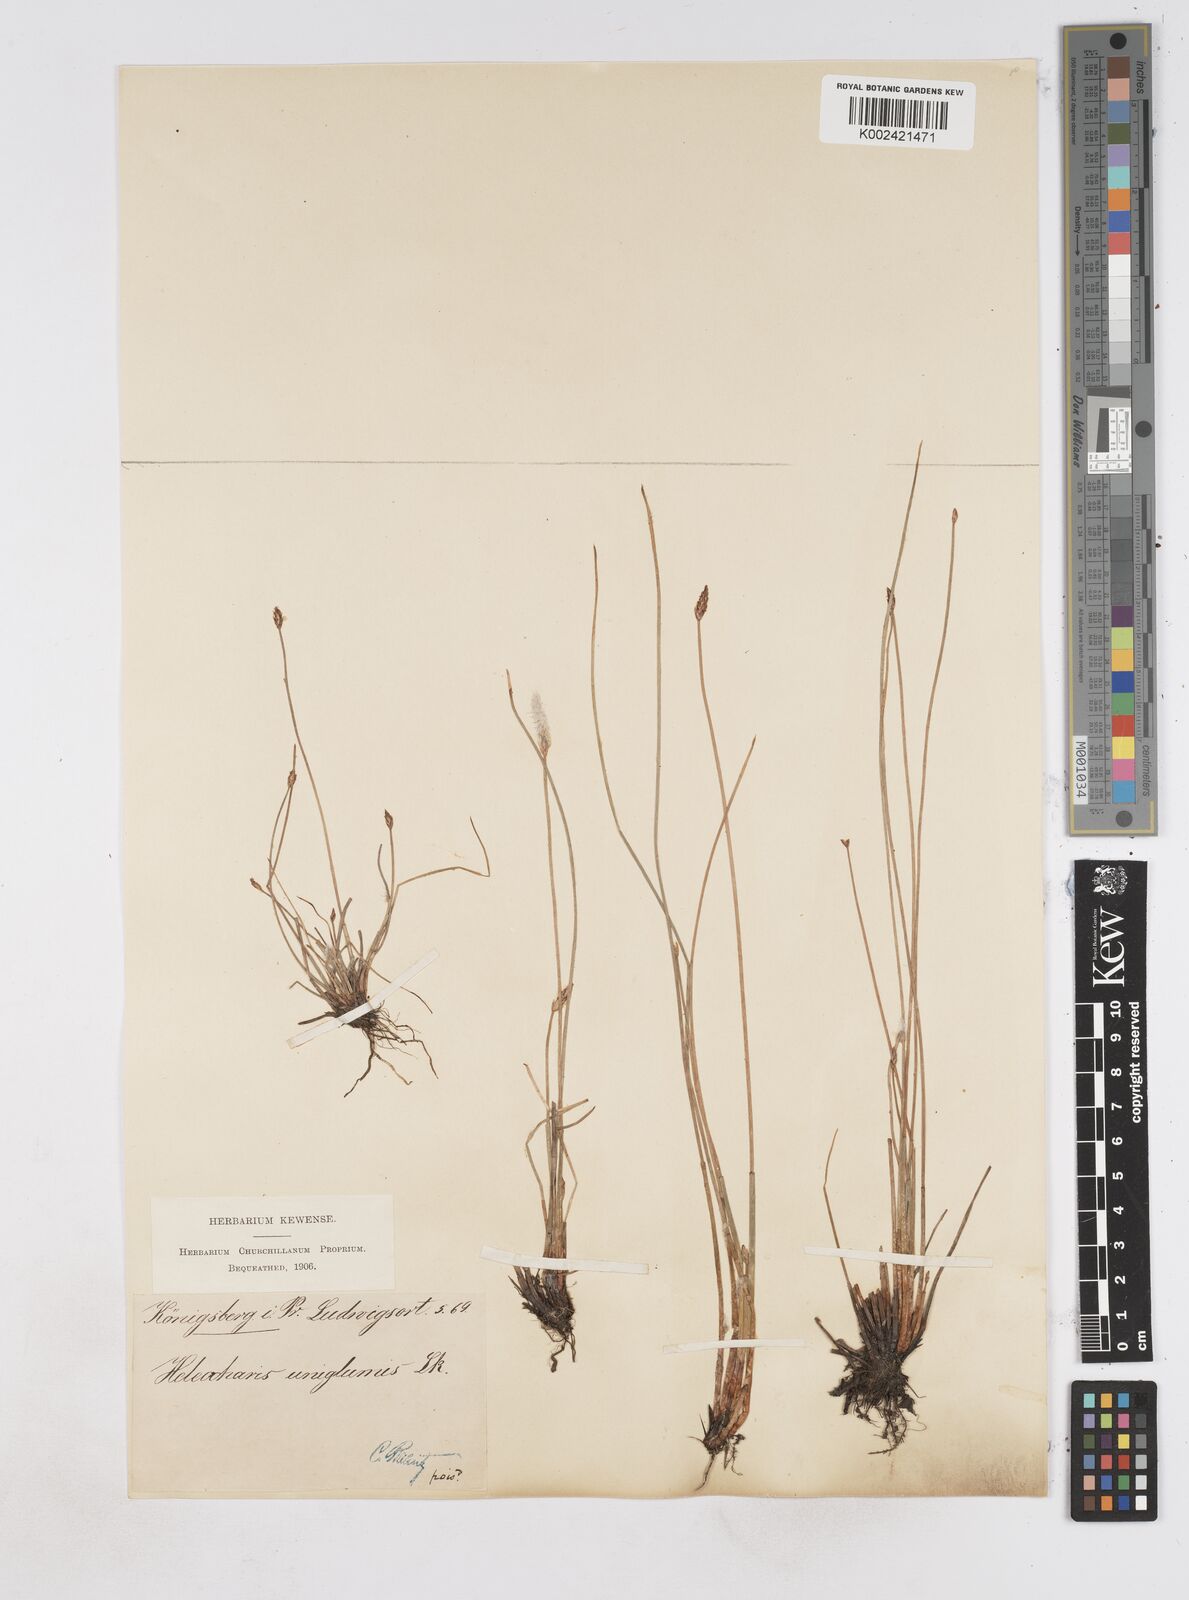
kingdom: Plantae
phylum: Tracheophyta
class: Liliopsida
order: Poales
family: Cyperaceae
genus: Eleocharis
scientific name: Eleocharis uniglumis
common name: Slender spike-rush
